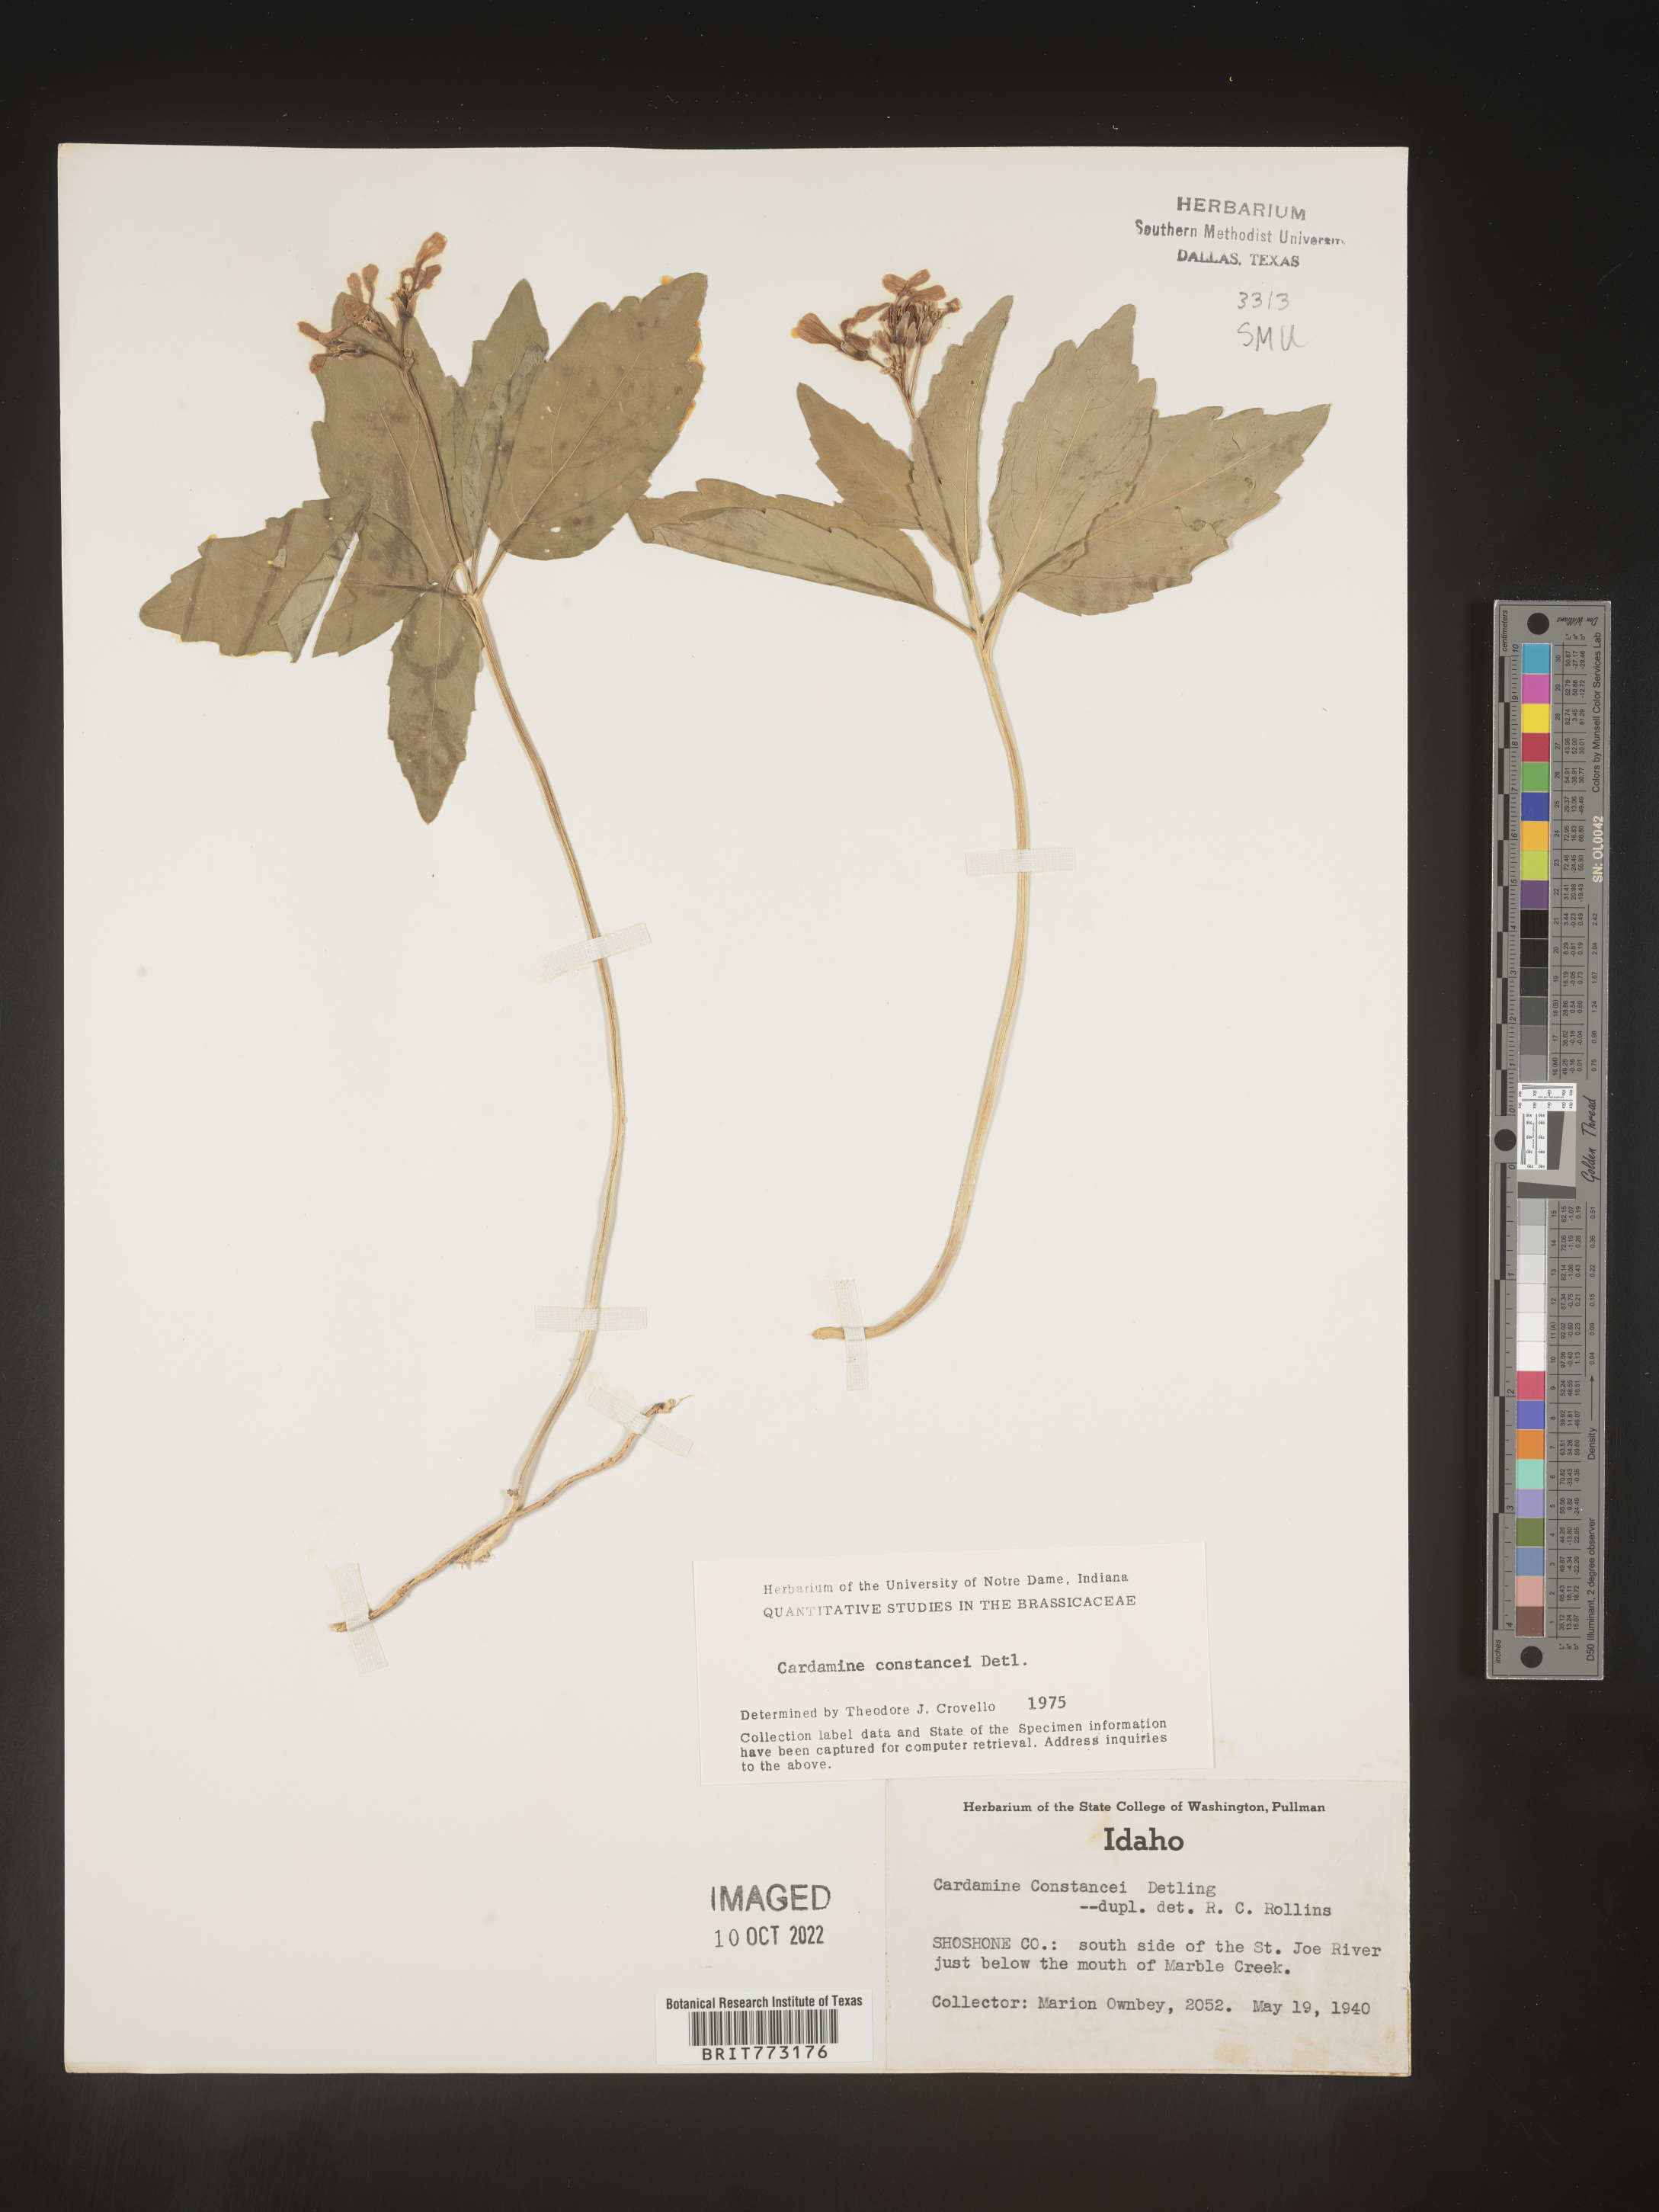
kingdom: Plantae
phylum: Tracheophyta
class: Magnoliopsida
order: Brassicales
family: Brassicaceae
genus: Cardamine
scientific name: Cardamine
